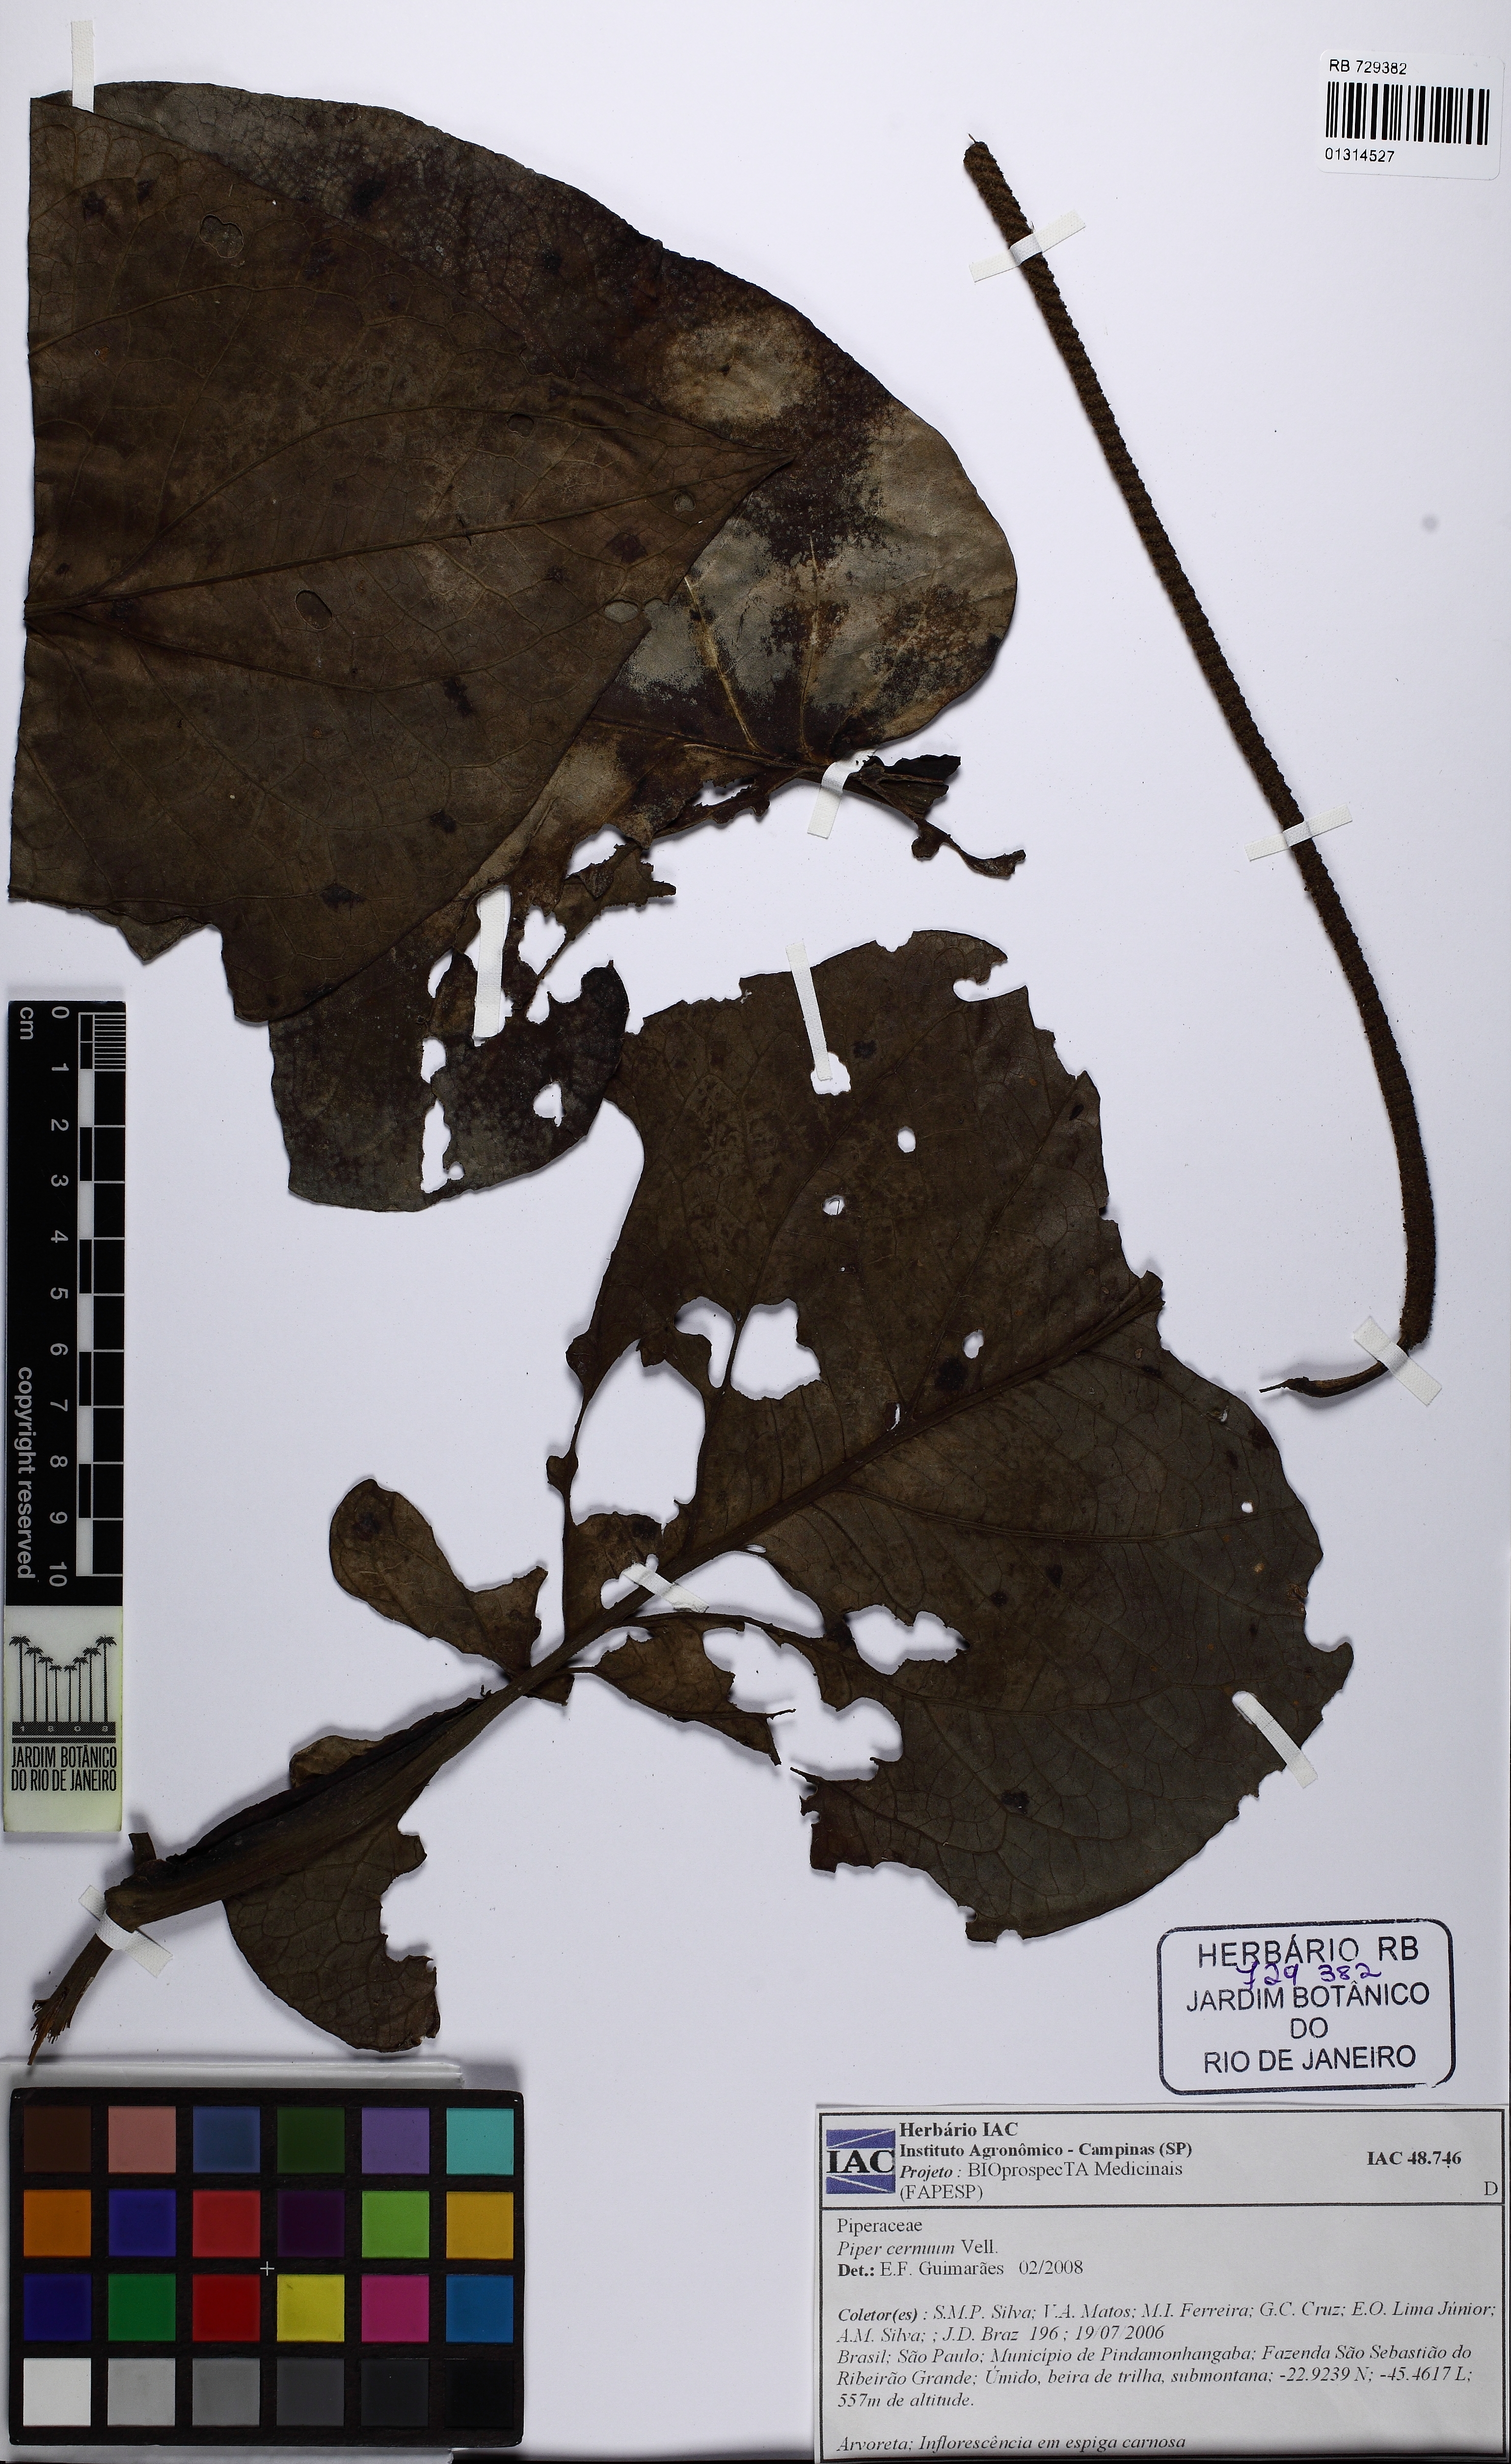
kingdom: Plantae
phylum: Tracheophyta
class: Magnoliopsida
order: Piperales
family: Piperaceae
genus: Piper
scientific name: Piper cernuum
